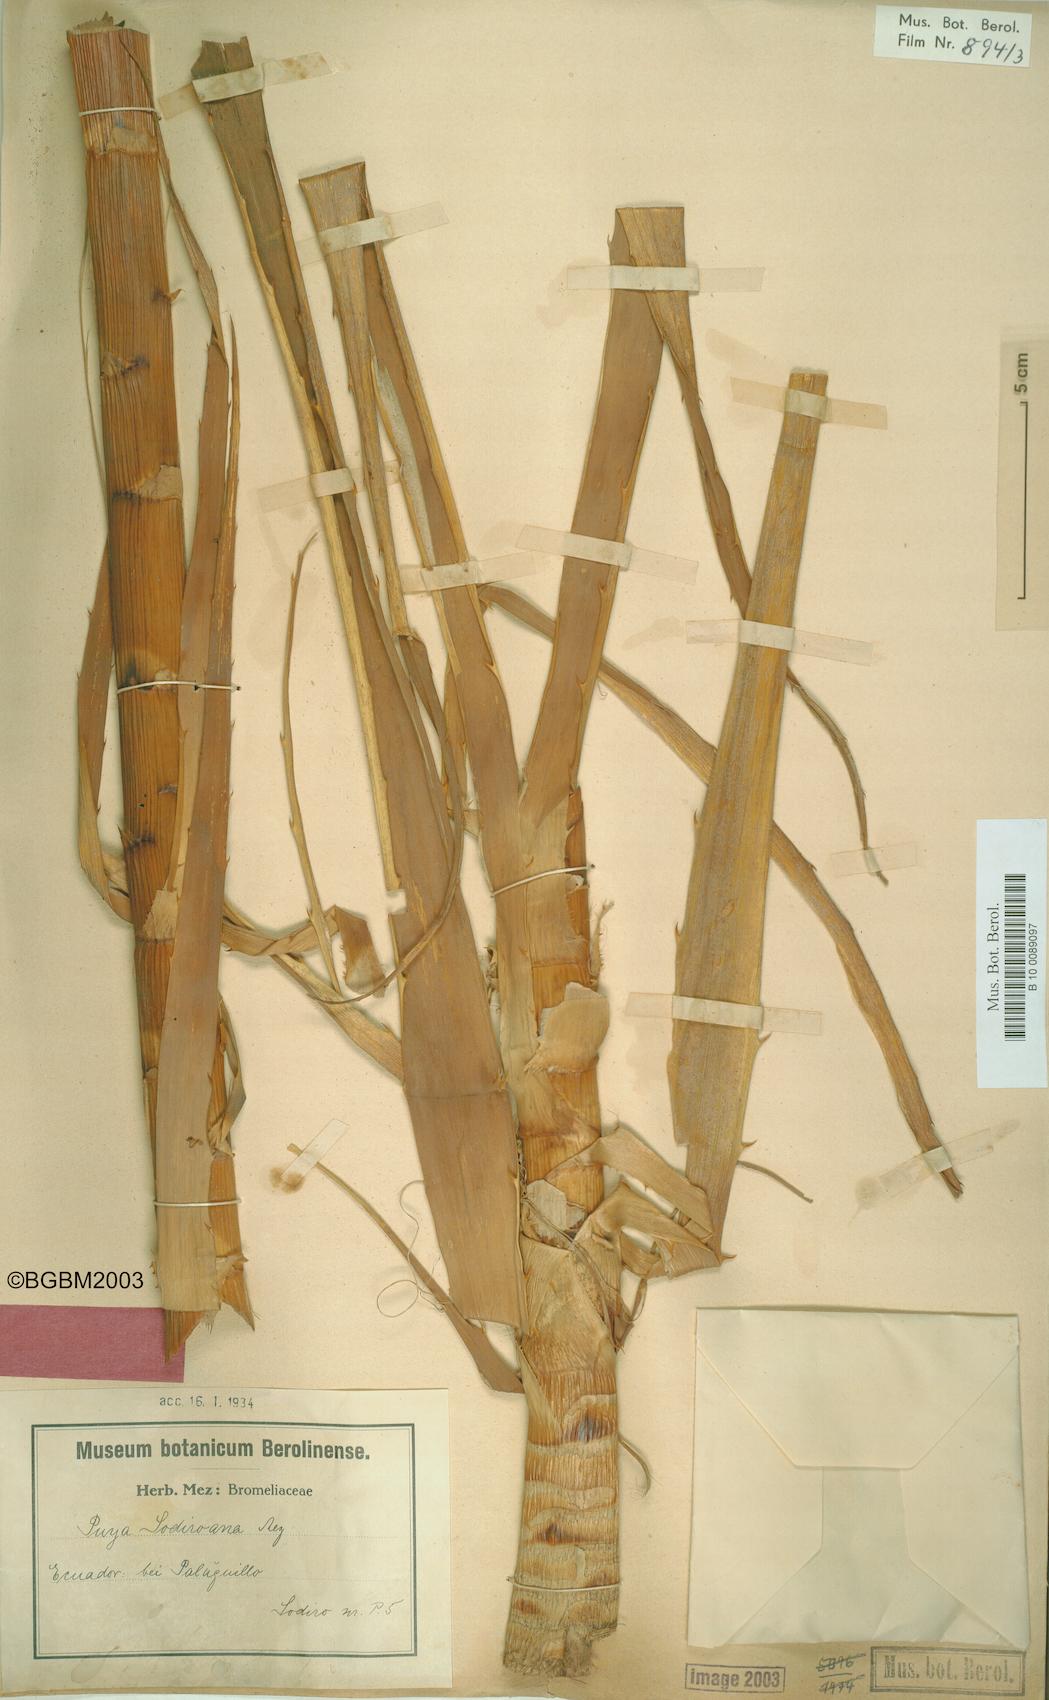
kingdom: Plantae
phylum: Tracheophyta
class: Liliopsida
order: Poales
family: Bromeliaceae
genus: Puya
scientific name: Puya sodiroana
